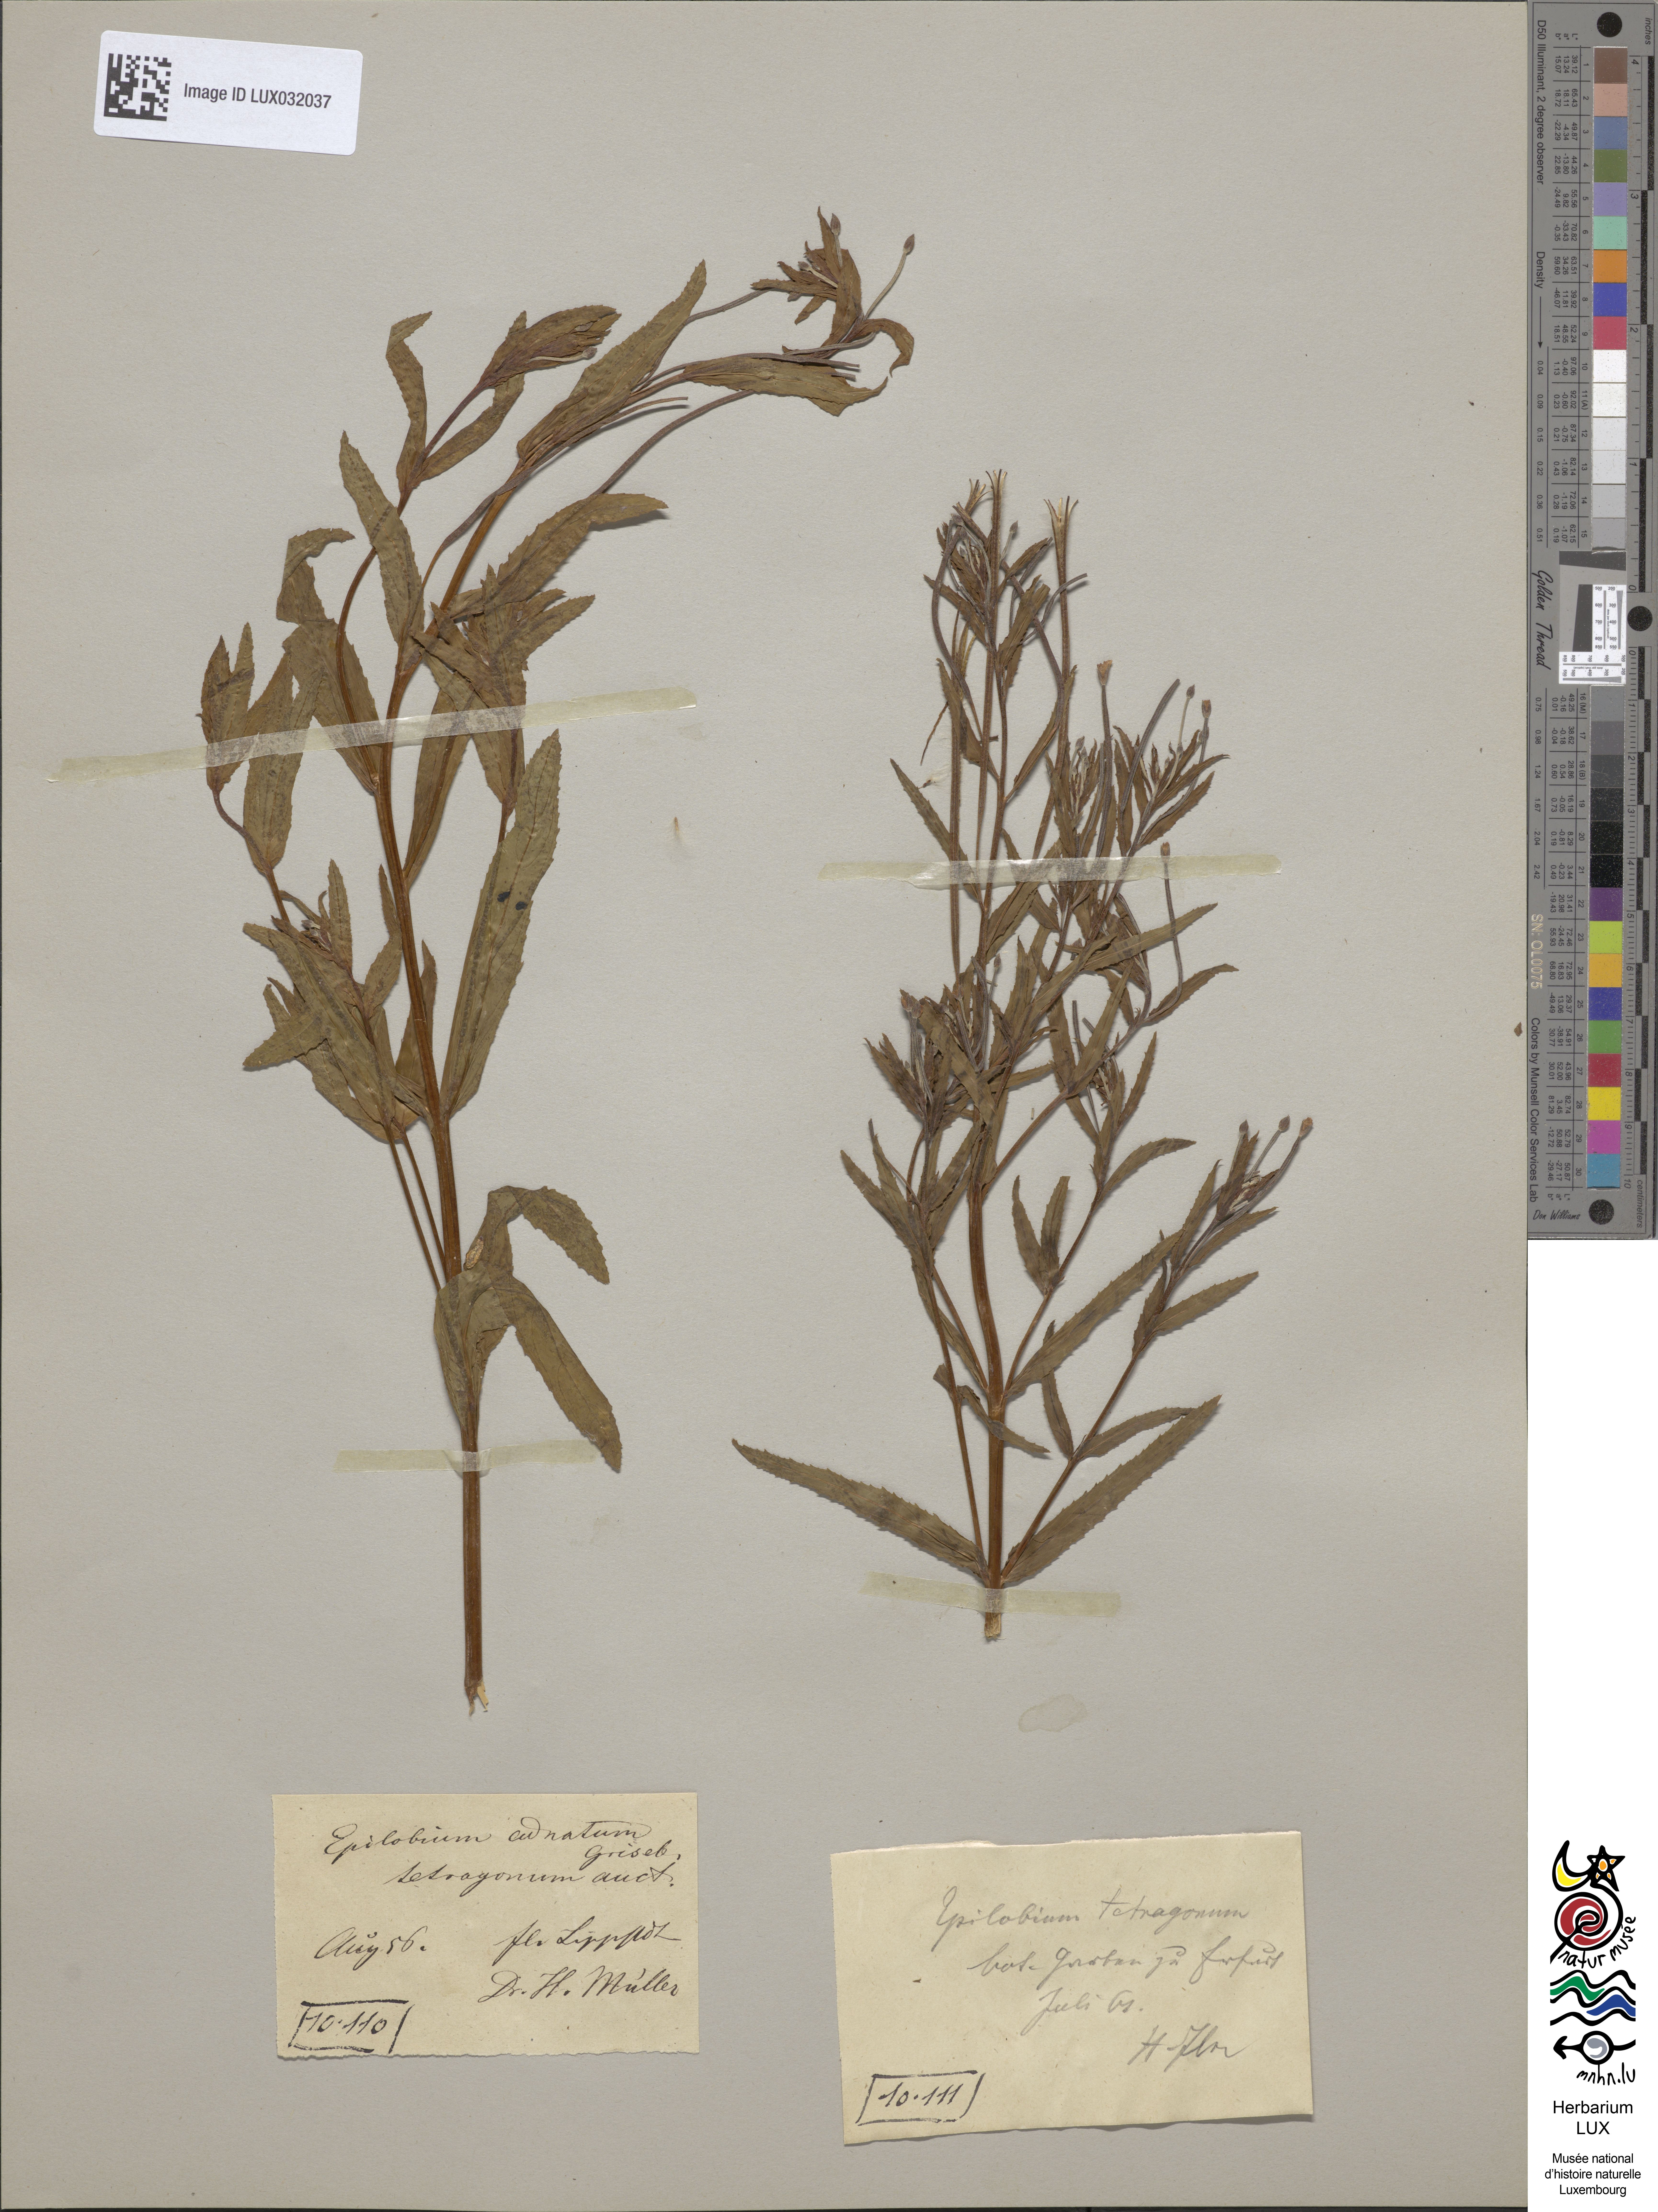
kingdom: Plantae
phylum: Tracheophyta
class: Magnoliopsida
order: Myrtales
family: Onagraceae
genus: Epilobium
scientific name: Epilobium tetragonum
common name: Square-stemmed willowherb
